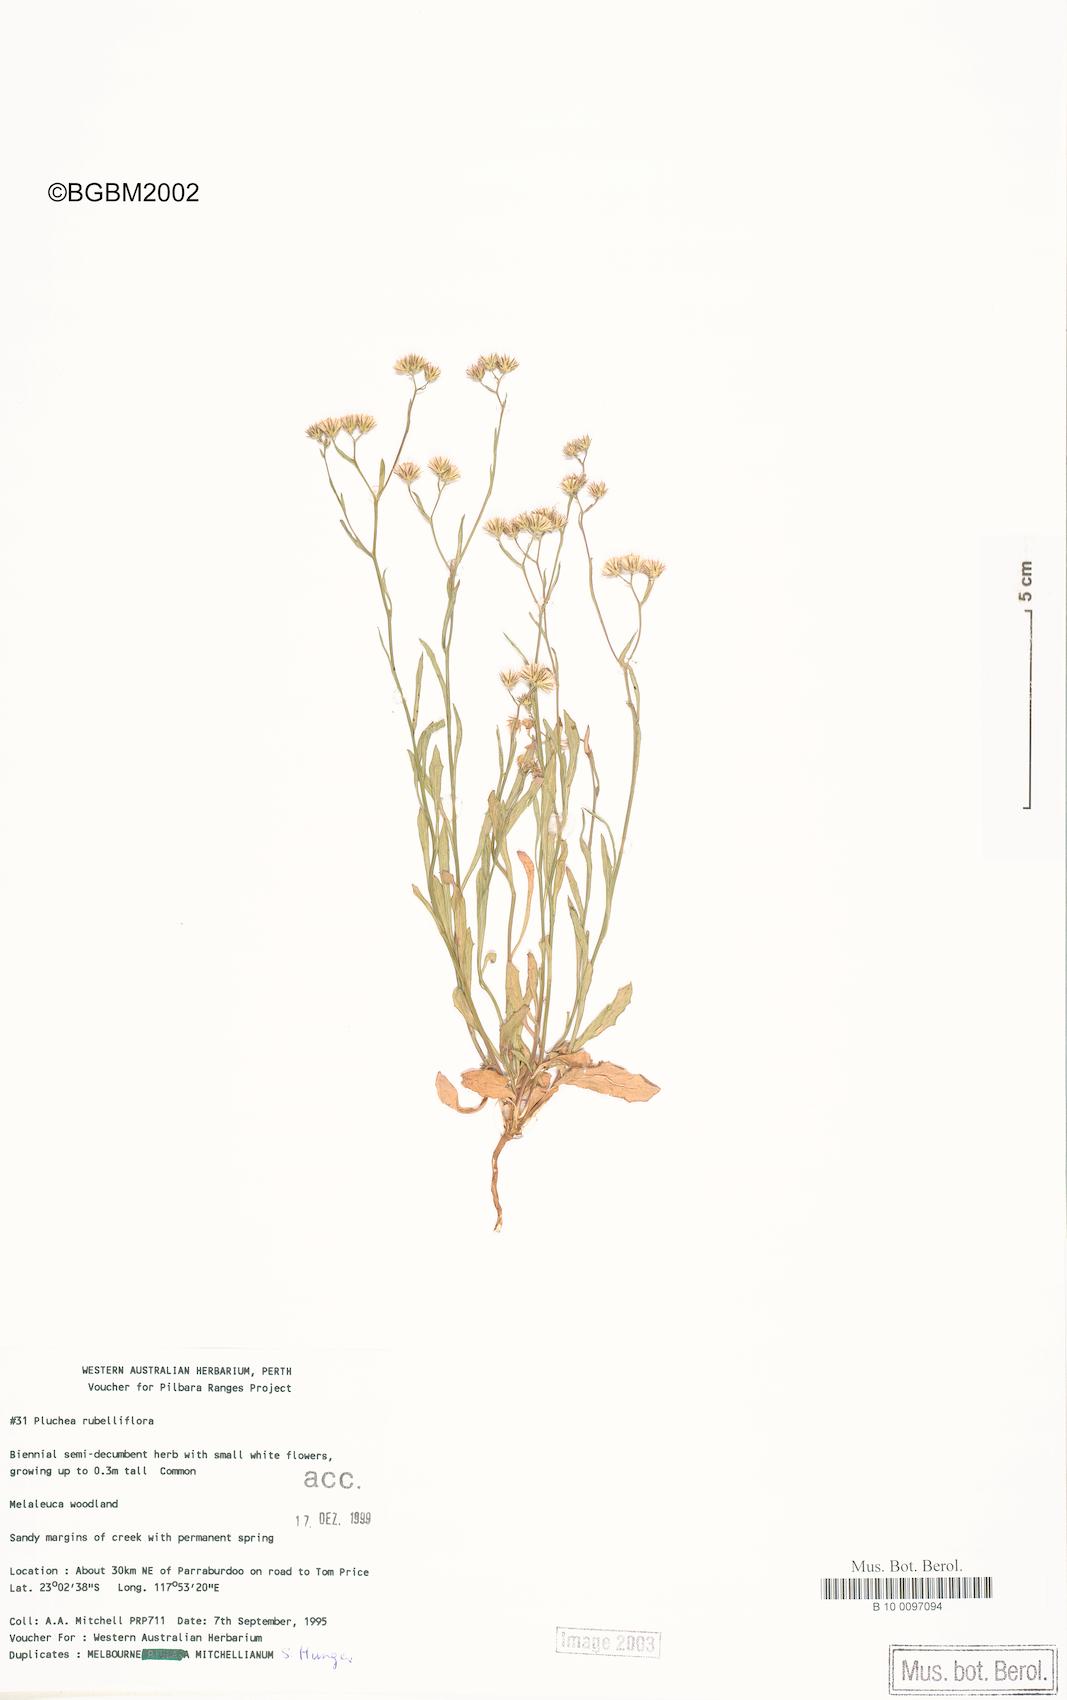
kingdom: Plantae
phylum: Tracheophyta
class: Magnoliopsida
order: Asterales
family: Asteraceae
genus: Pluchea
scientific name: Pluchea rubelliflora
